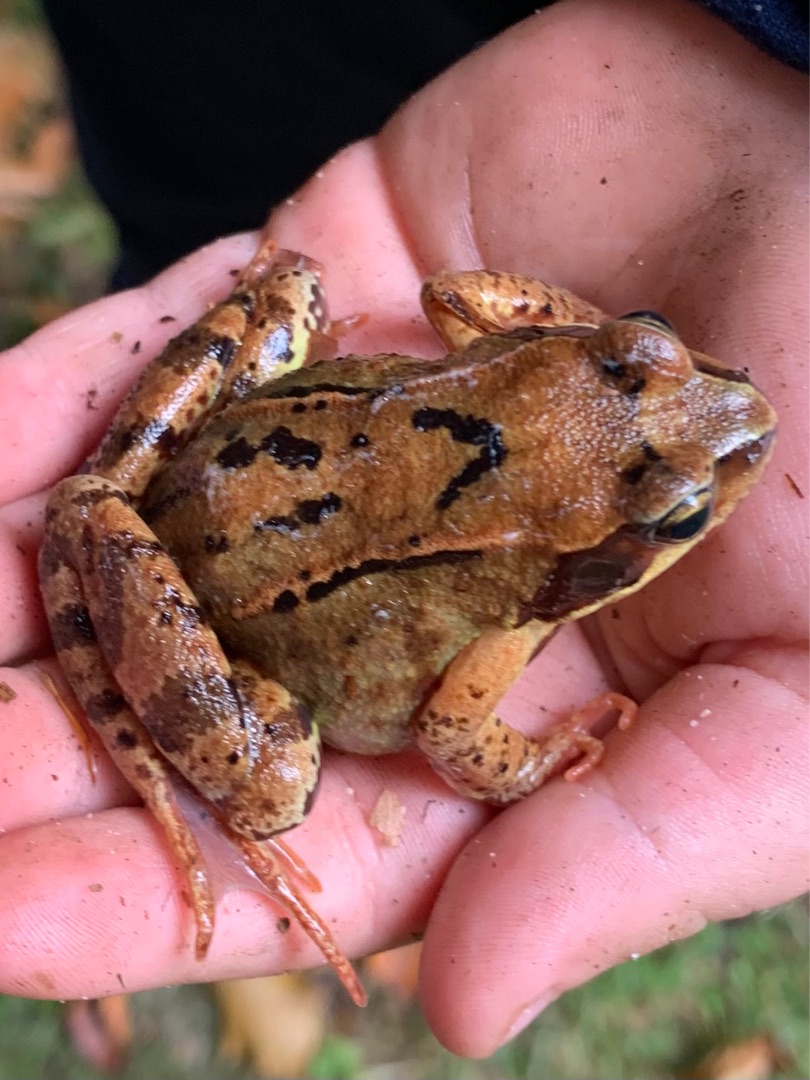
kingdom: Animalia
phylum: Chordata
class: Amphibia
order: Anura
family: Ranidae
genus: Rana
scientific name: Rana temporaria
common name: Butsnudet frø
